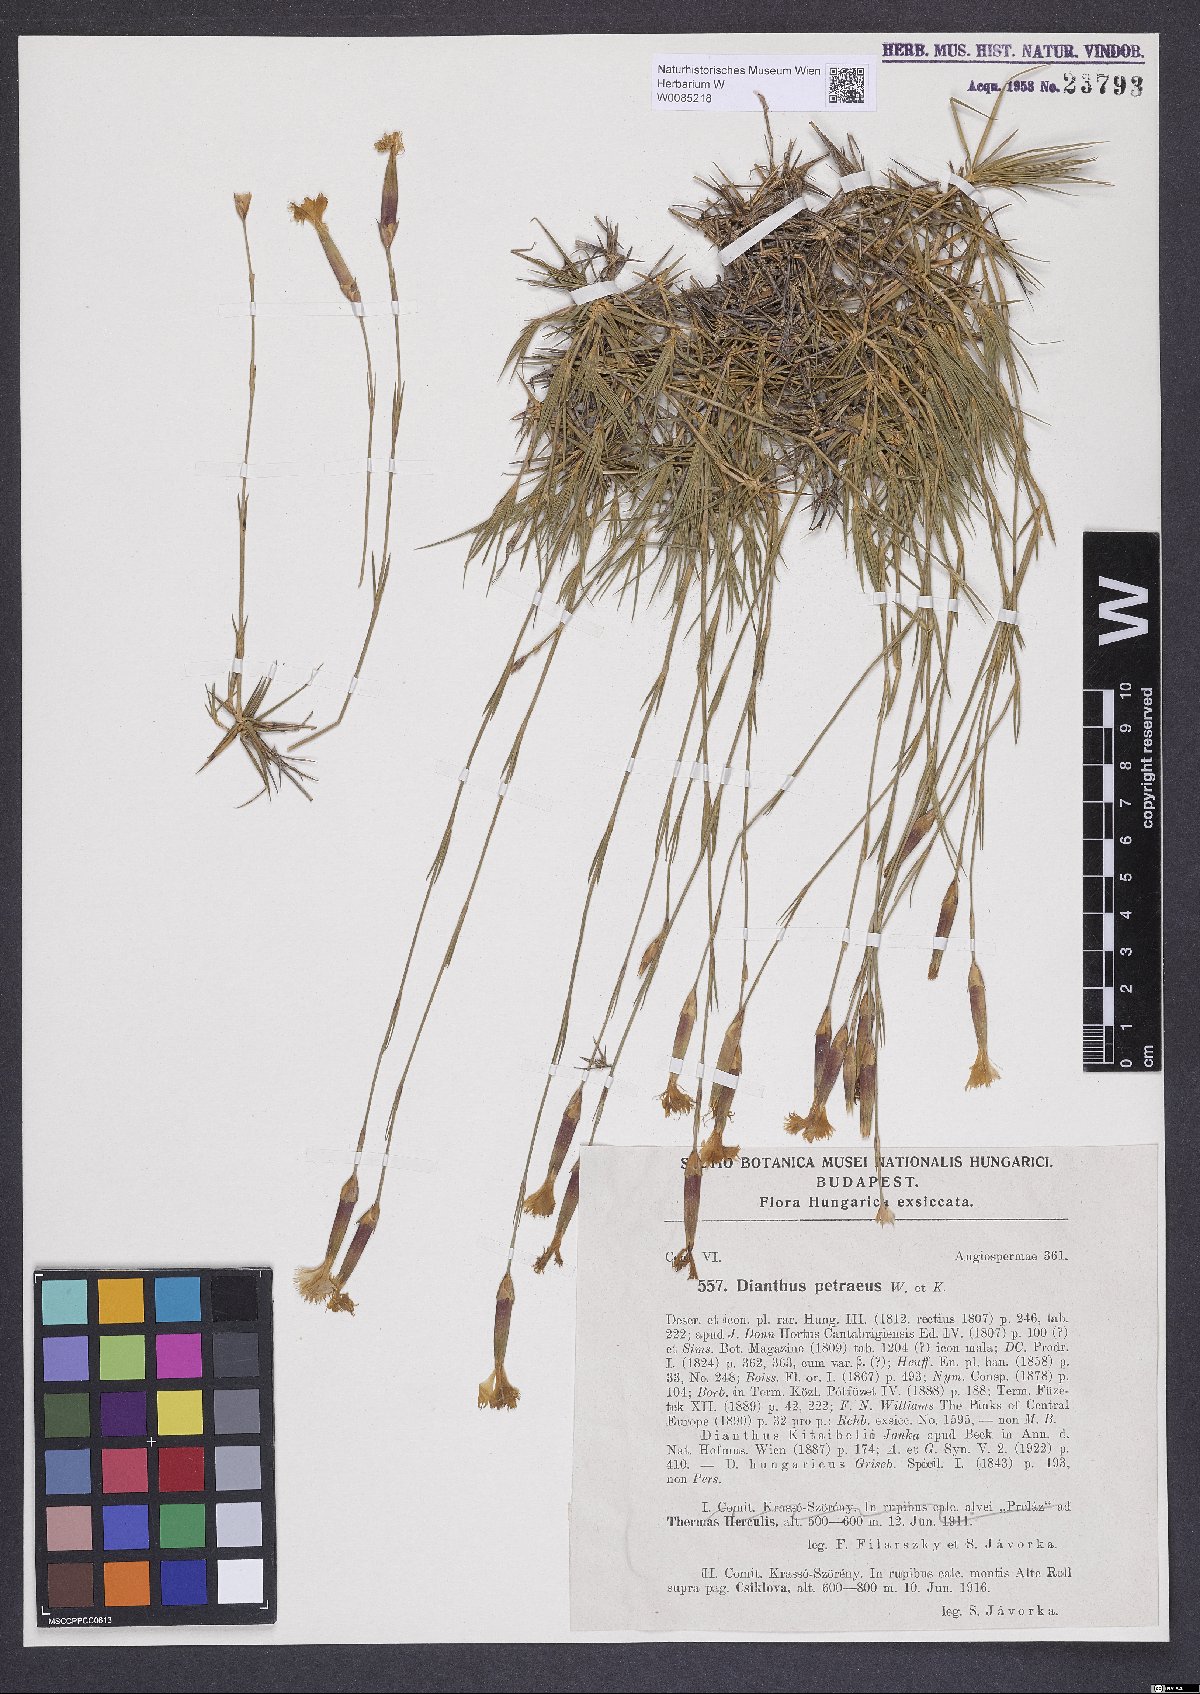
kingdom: Plantae
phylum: Tracheophyta
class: Magnoliopsida
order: Caryophyllales
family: Caryophyllaceae
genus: Dianthus
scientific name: Dianthus petraeus
